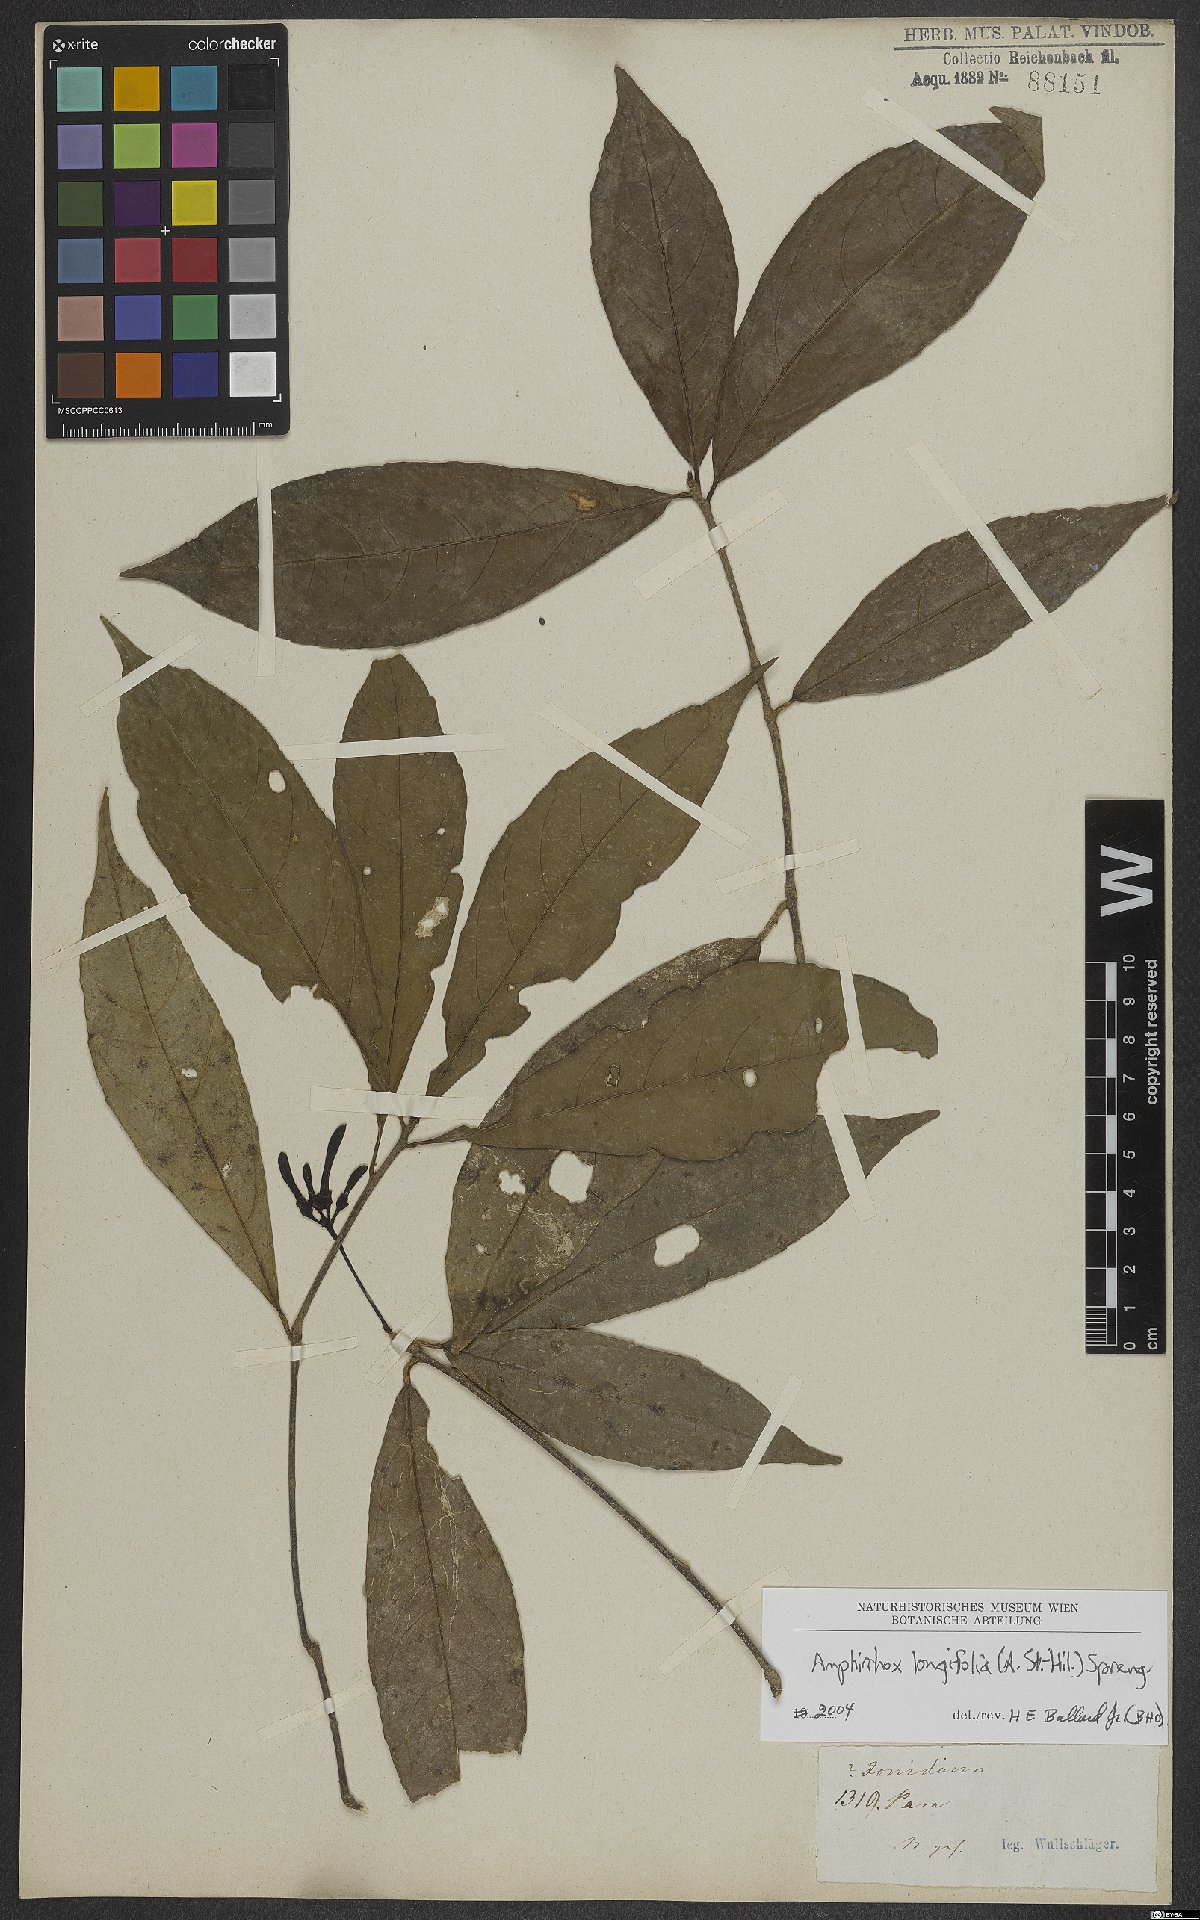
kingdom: Plantae
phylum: Tracheophyta
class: Magnoliopsida
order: Malpighiales
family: Violaceae
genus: Amphirrhox
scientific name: Amphirrhox longifolia
